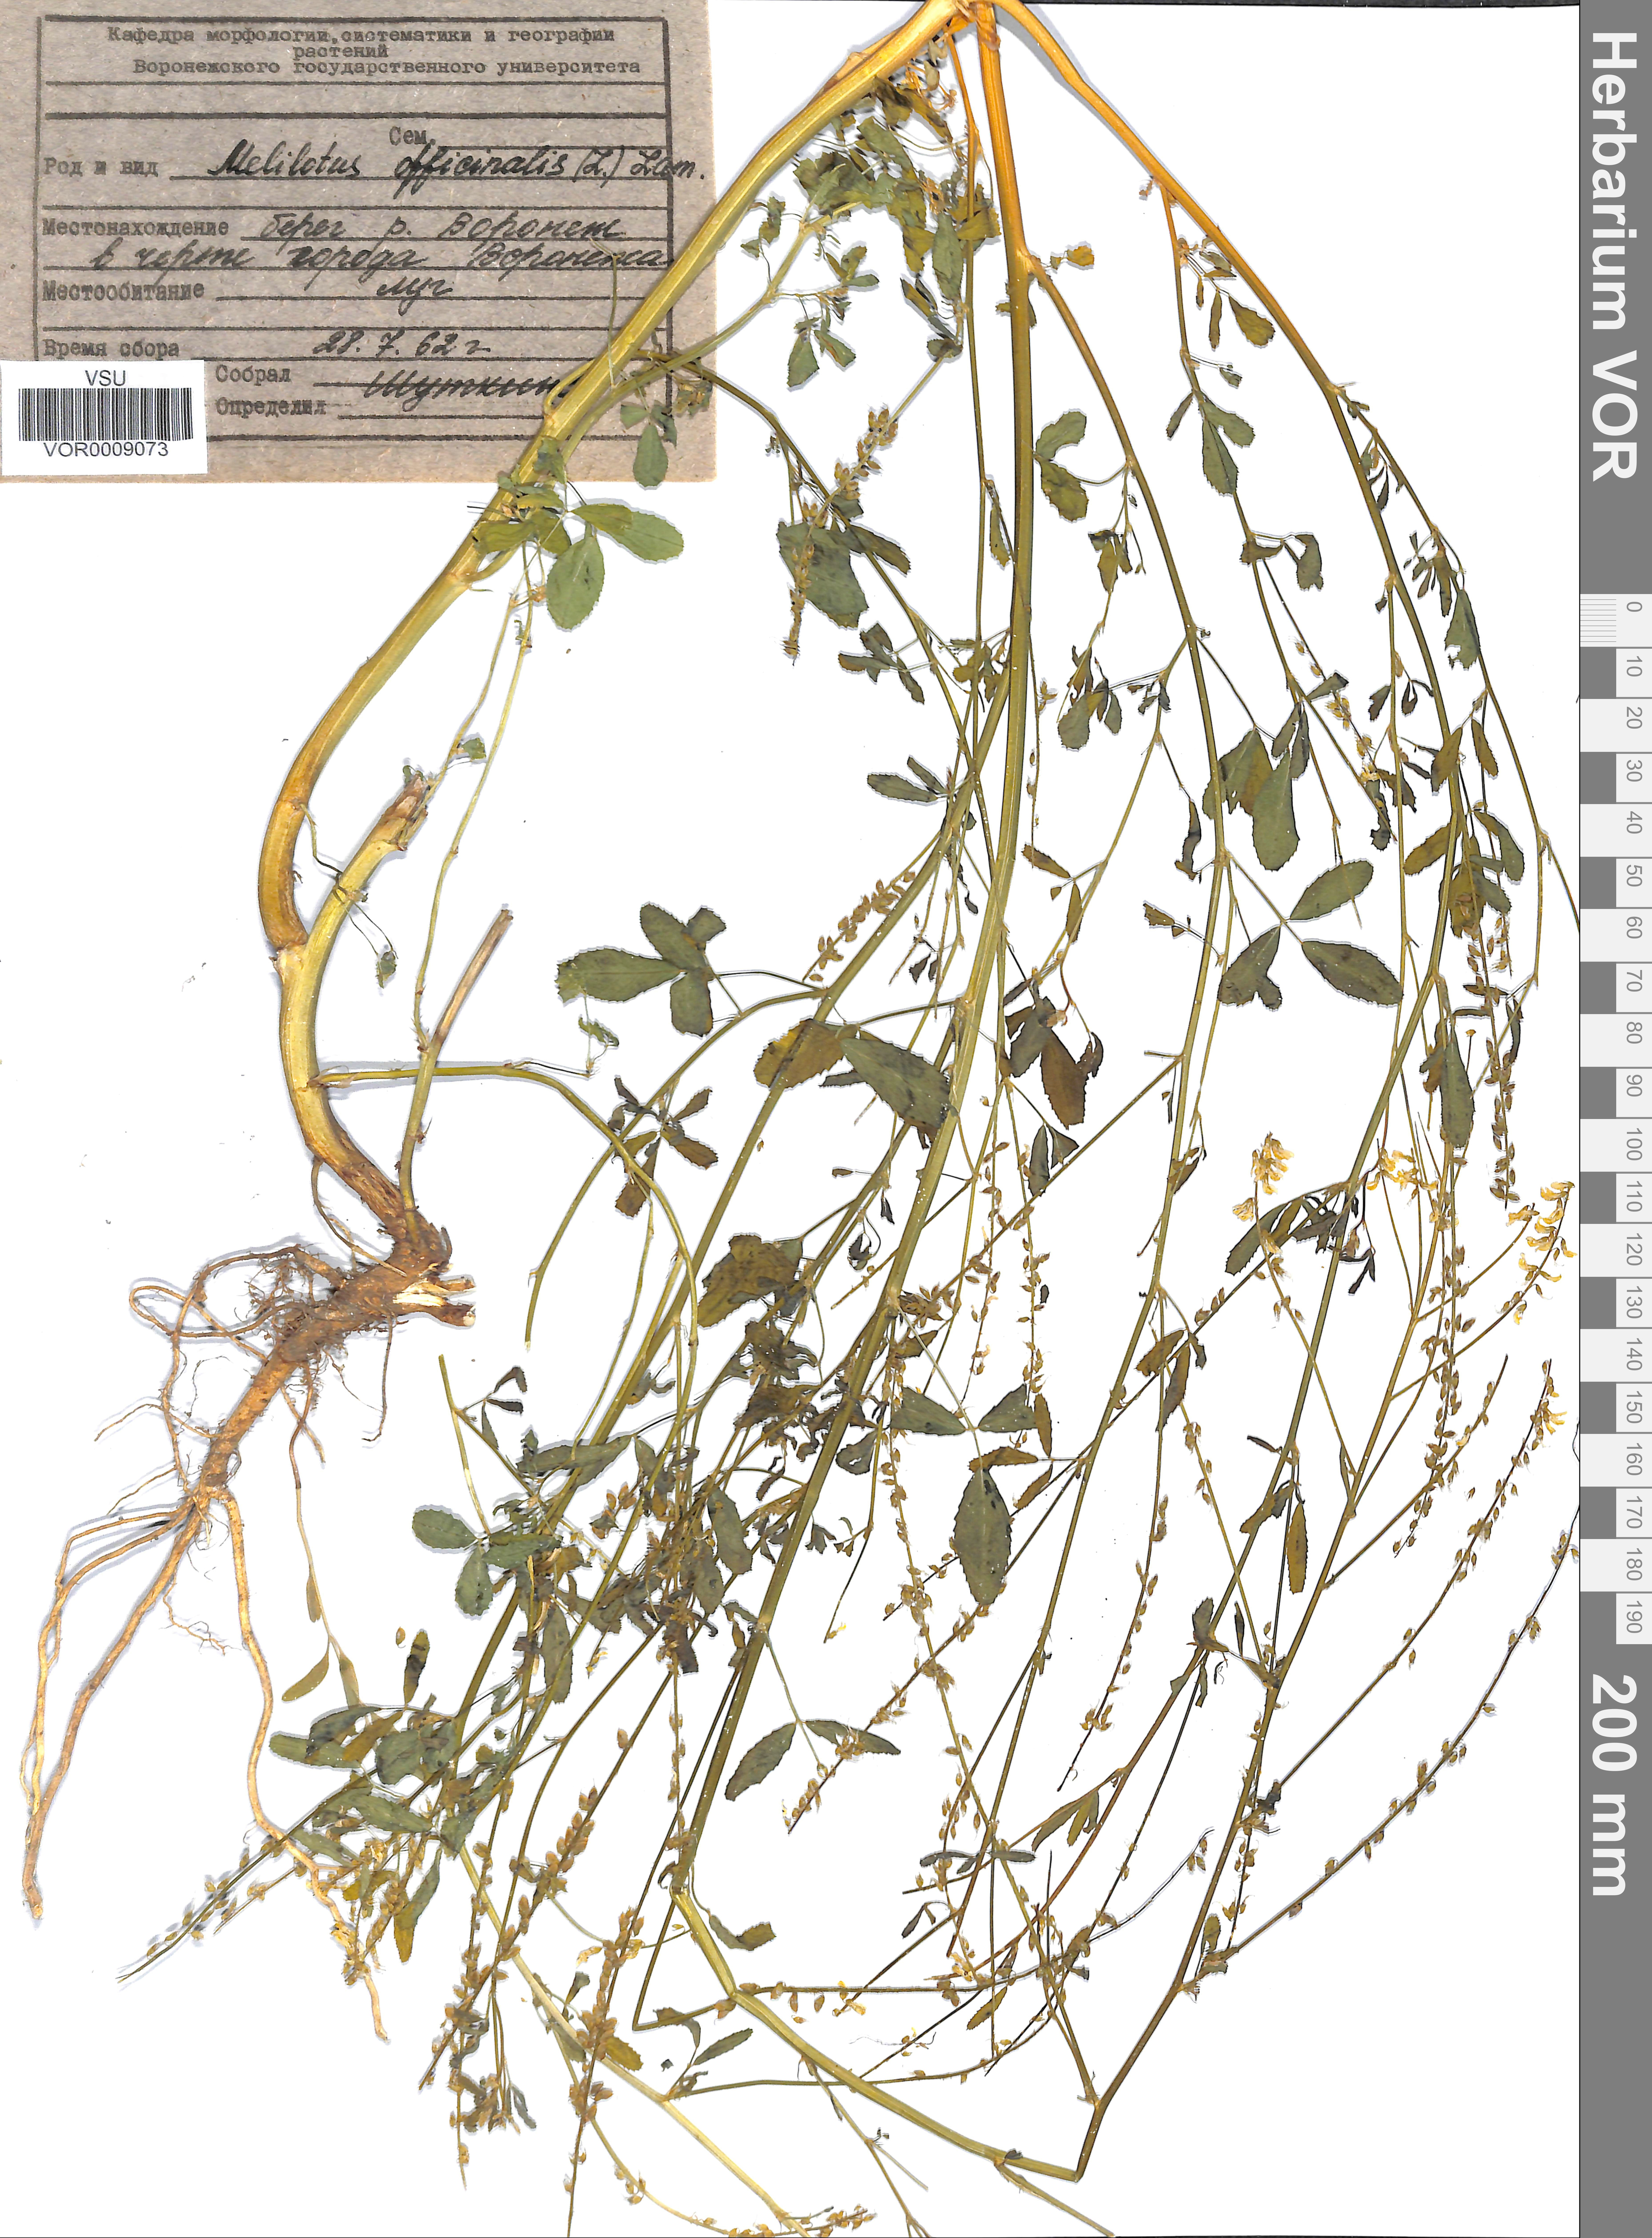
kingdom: Plantae
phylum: Tracheophyta
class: Magnoliopsida
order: Fabales
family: Fabaceae
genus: Melilotus
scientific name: Melilotus officinalis
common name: Sweetclover
